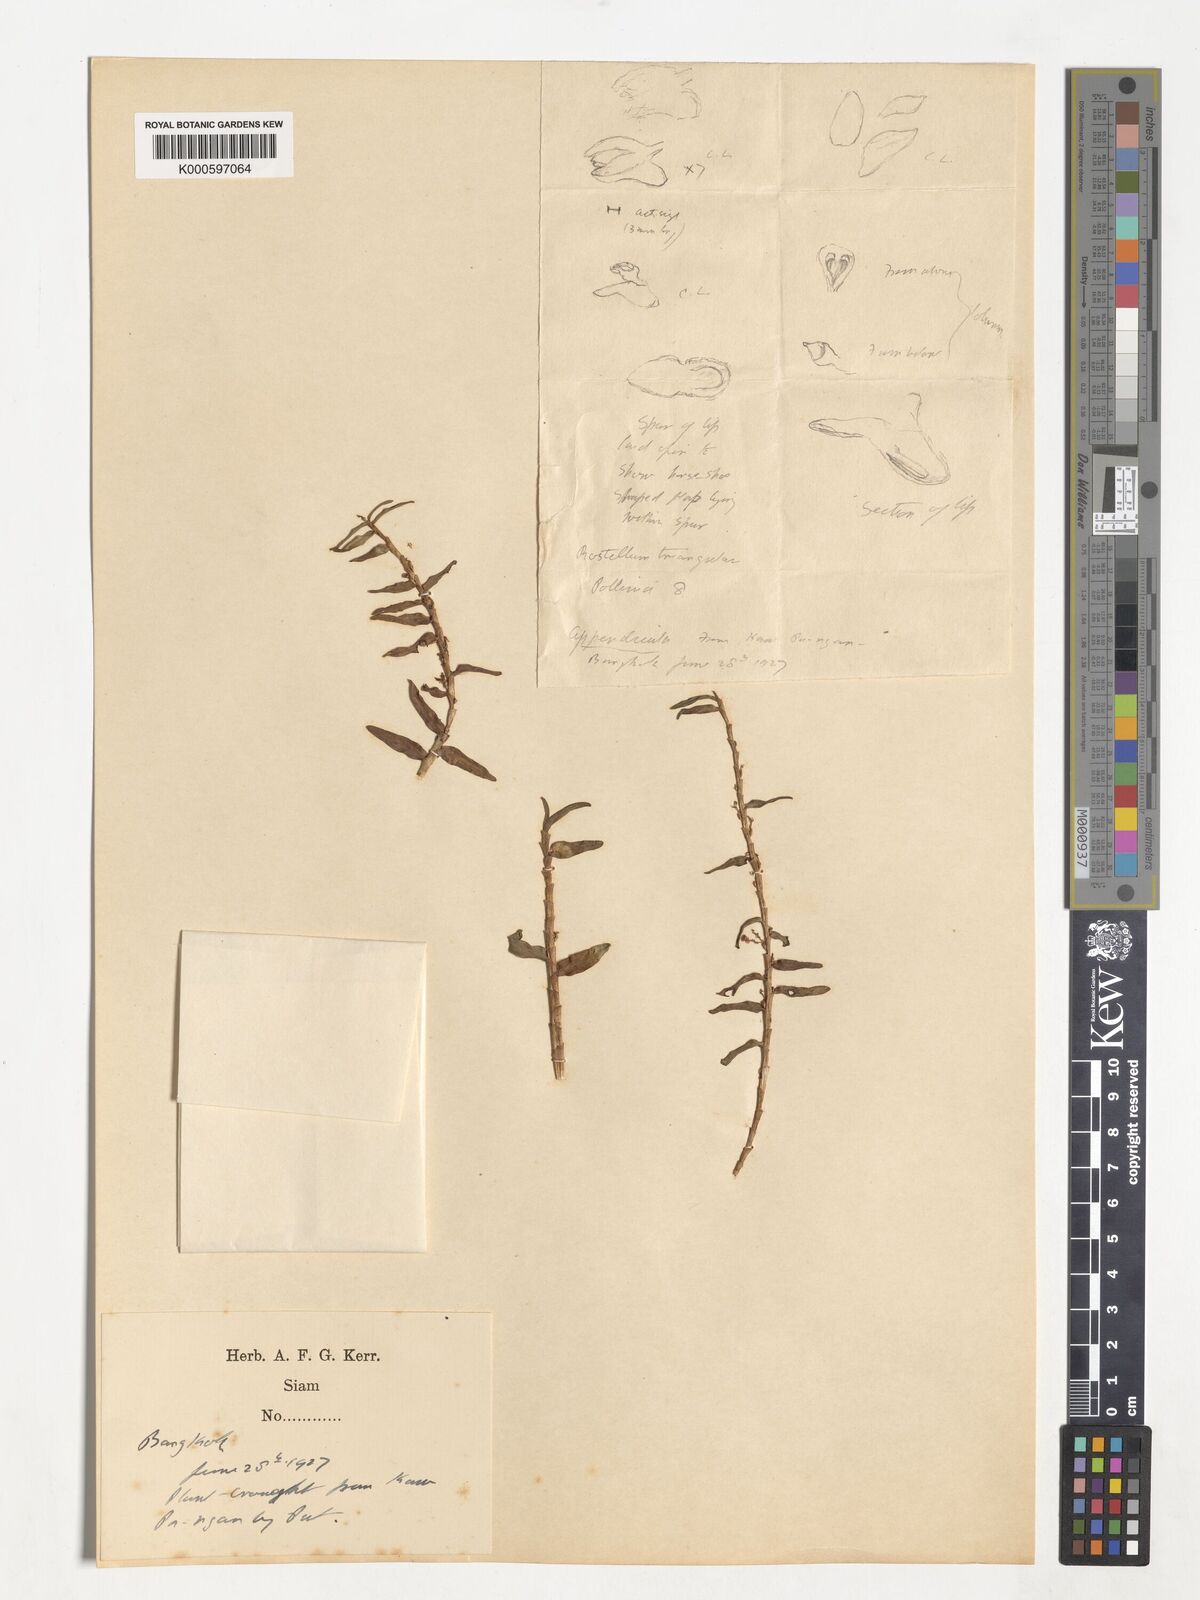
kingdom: Plantae
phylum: Tracheophyta
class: Liliopsida
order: Asparagales
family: Orchidaceae
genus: Appendicula
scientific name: Appendicula
